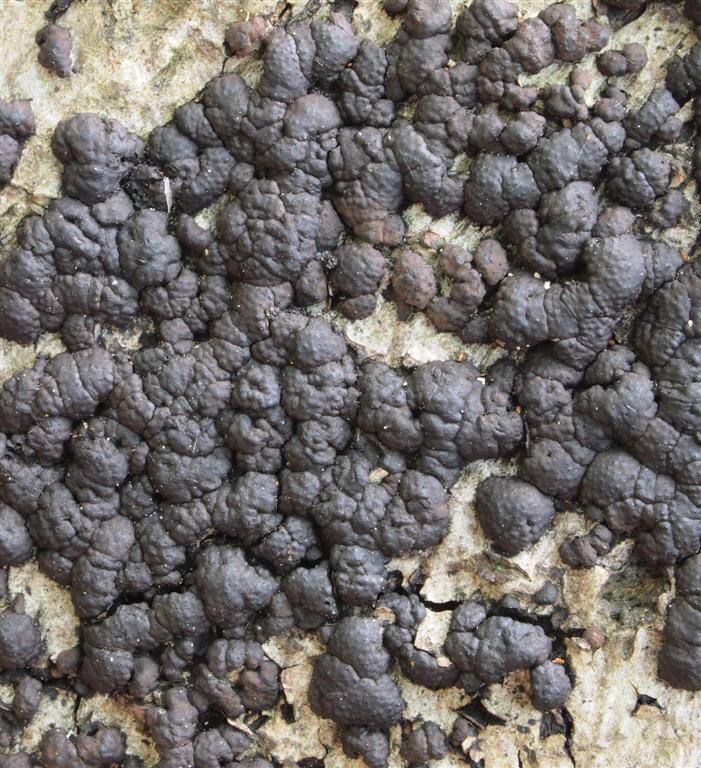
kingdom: Fungi
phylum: Ascomycota
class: Sordariomycetes
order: Xylariales
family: Hypoxylaceae
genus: Jackrogersella
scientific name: Jackrogersella cohaerens
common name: sammenflydende kulbær
